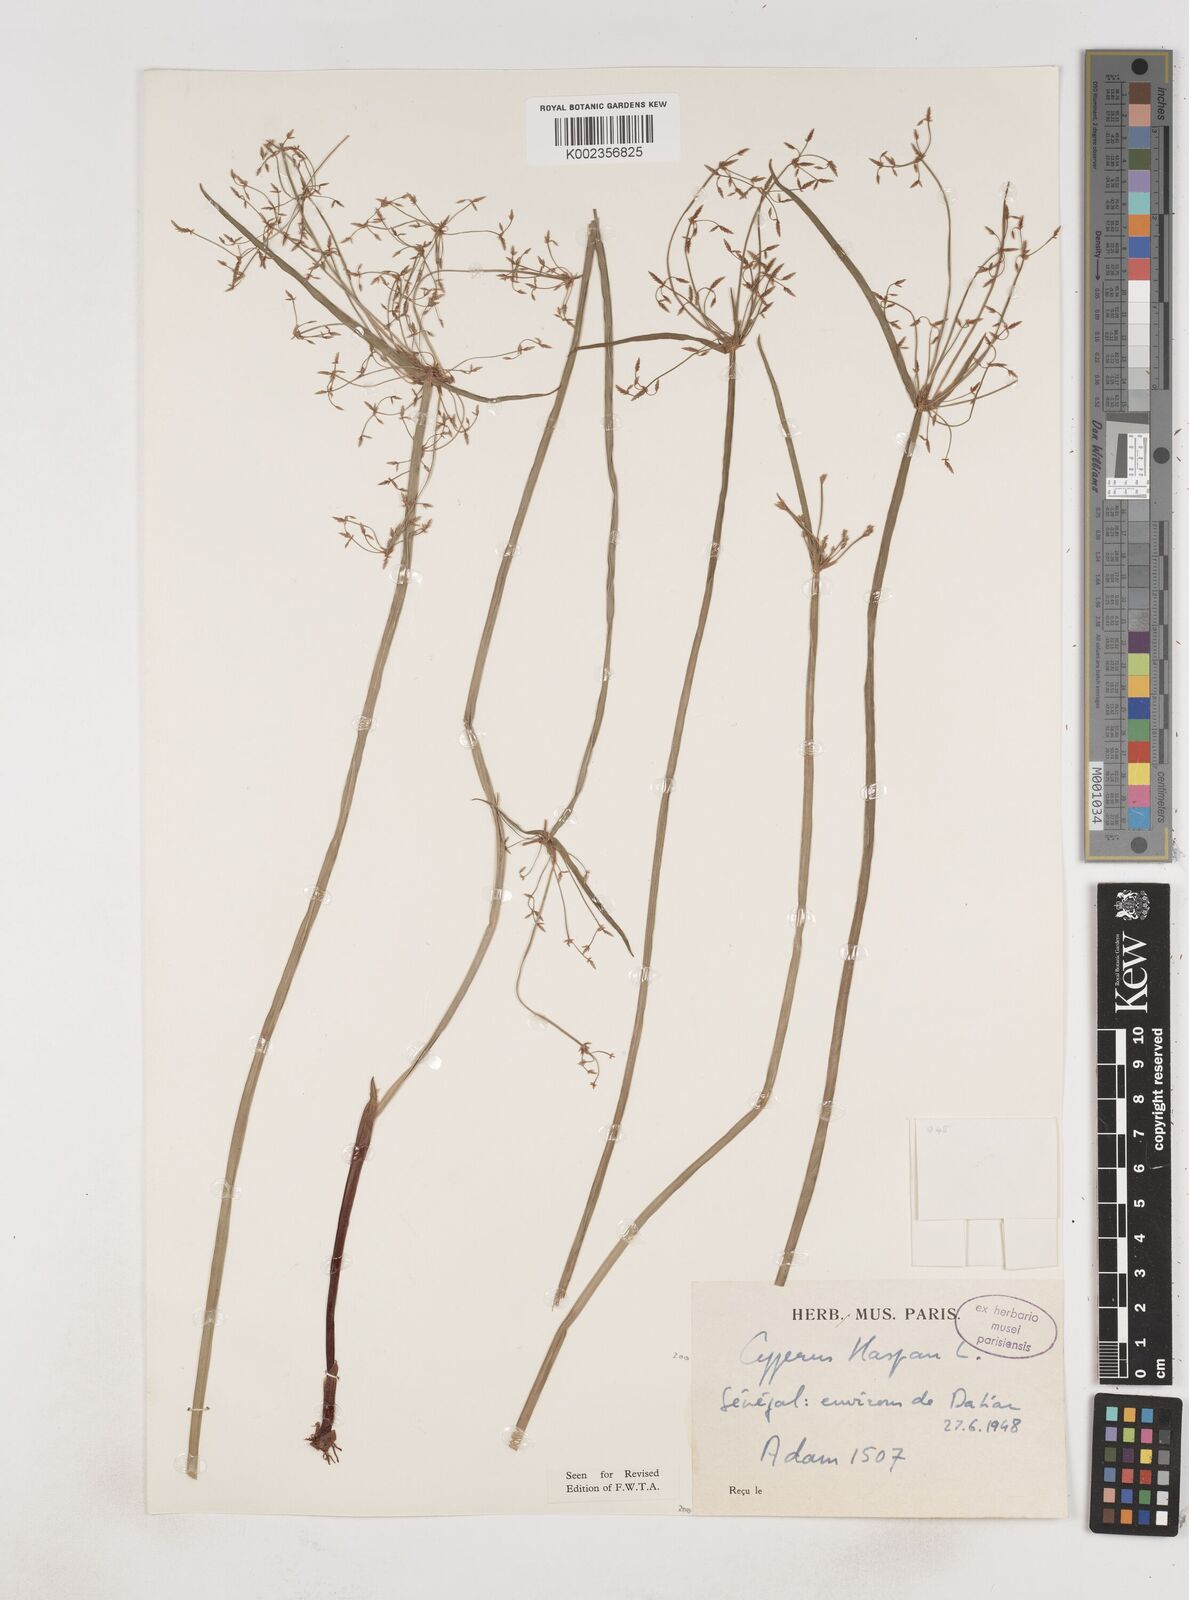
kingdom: Plantae
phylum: Tracheophyta
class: Liliopsida
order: Poales
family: Cyperaceae
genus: Cyperus
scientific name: Cyperus haspan
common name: Haspan flatsedge
